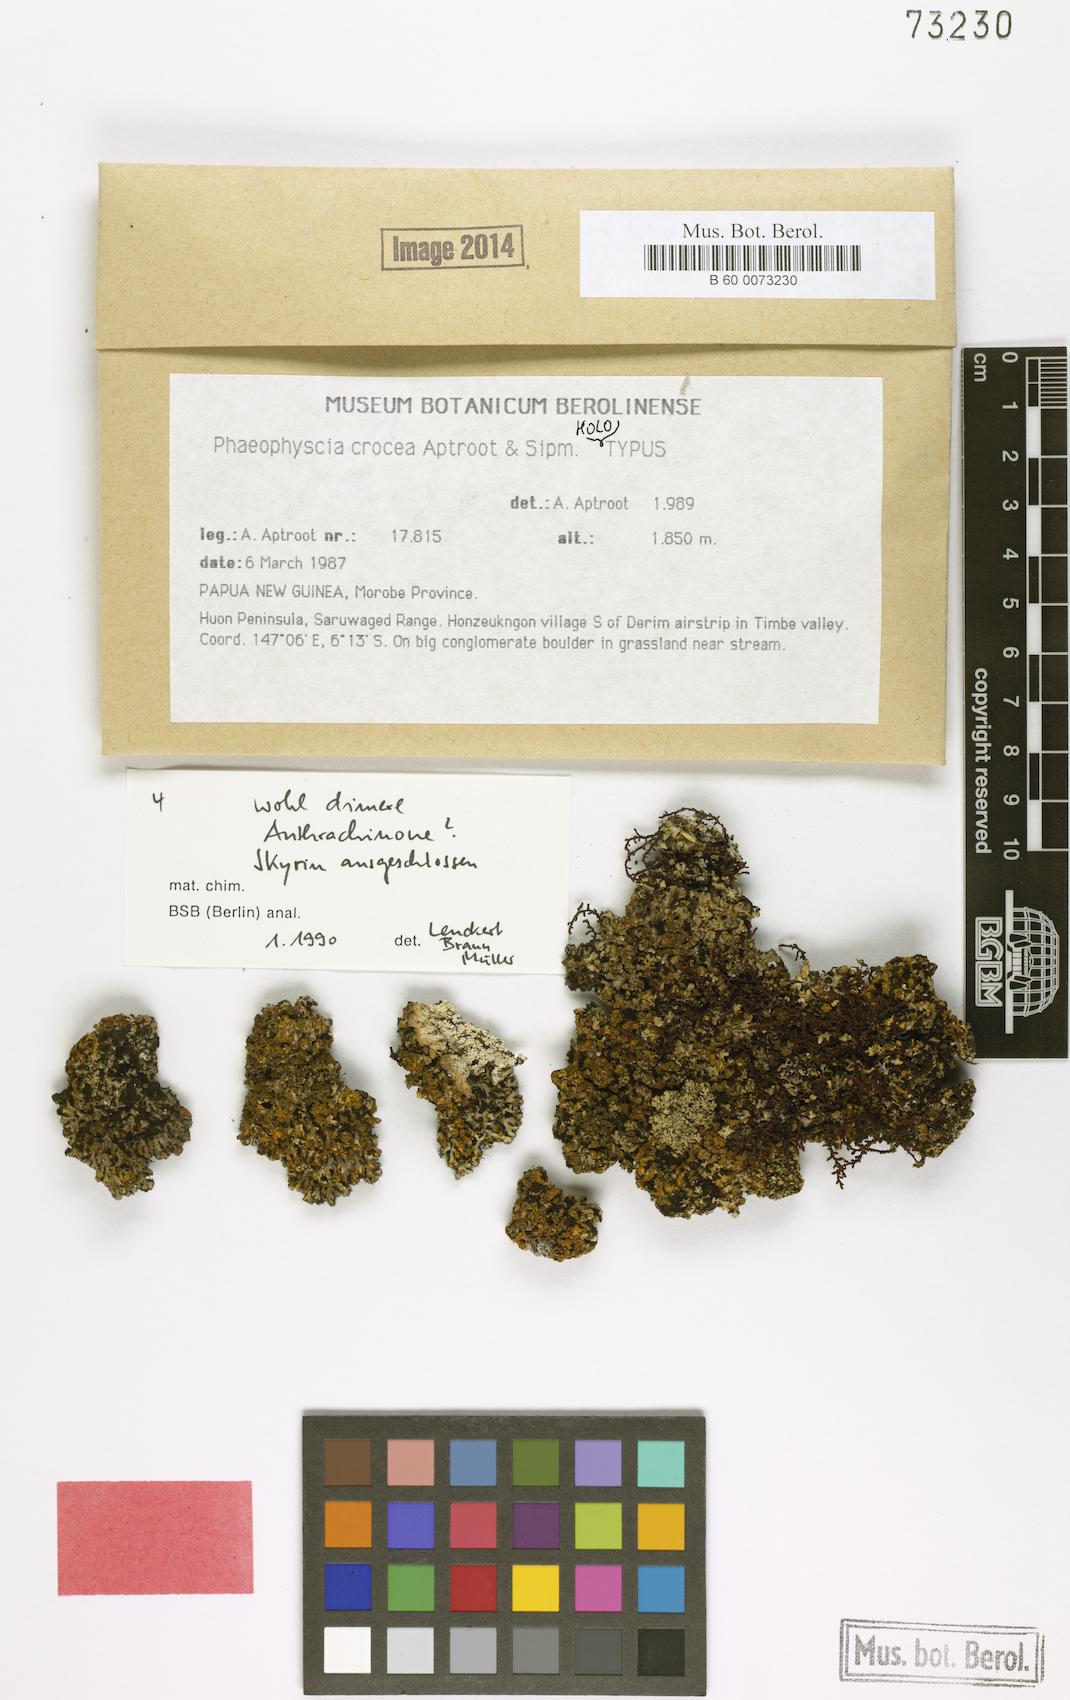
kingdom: Fungi
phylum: Ascomycota
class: Lecanoromycetes
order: Caliciales
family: Physciaceae
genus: Phaeophyscia
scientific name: Phaeophyscia crocea
